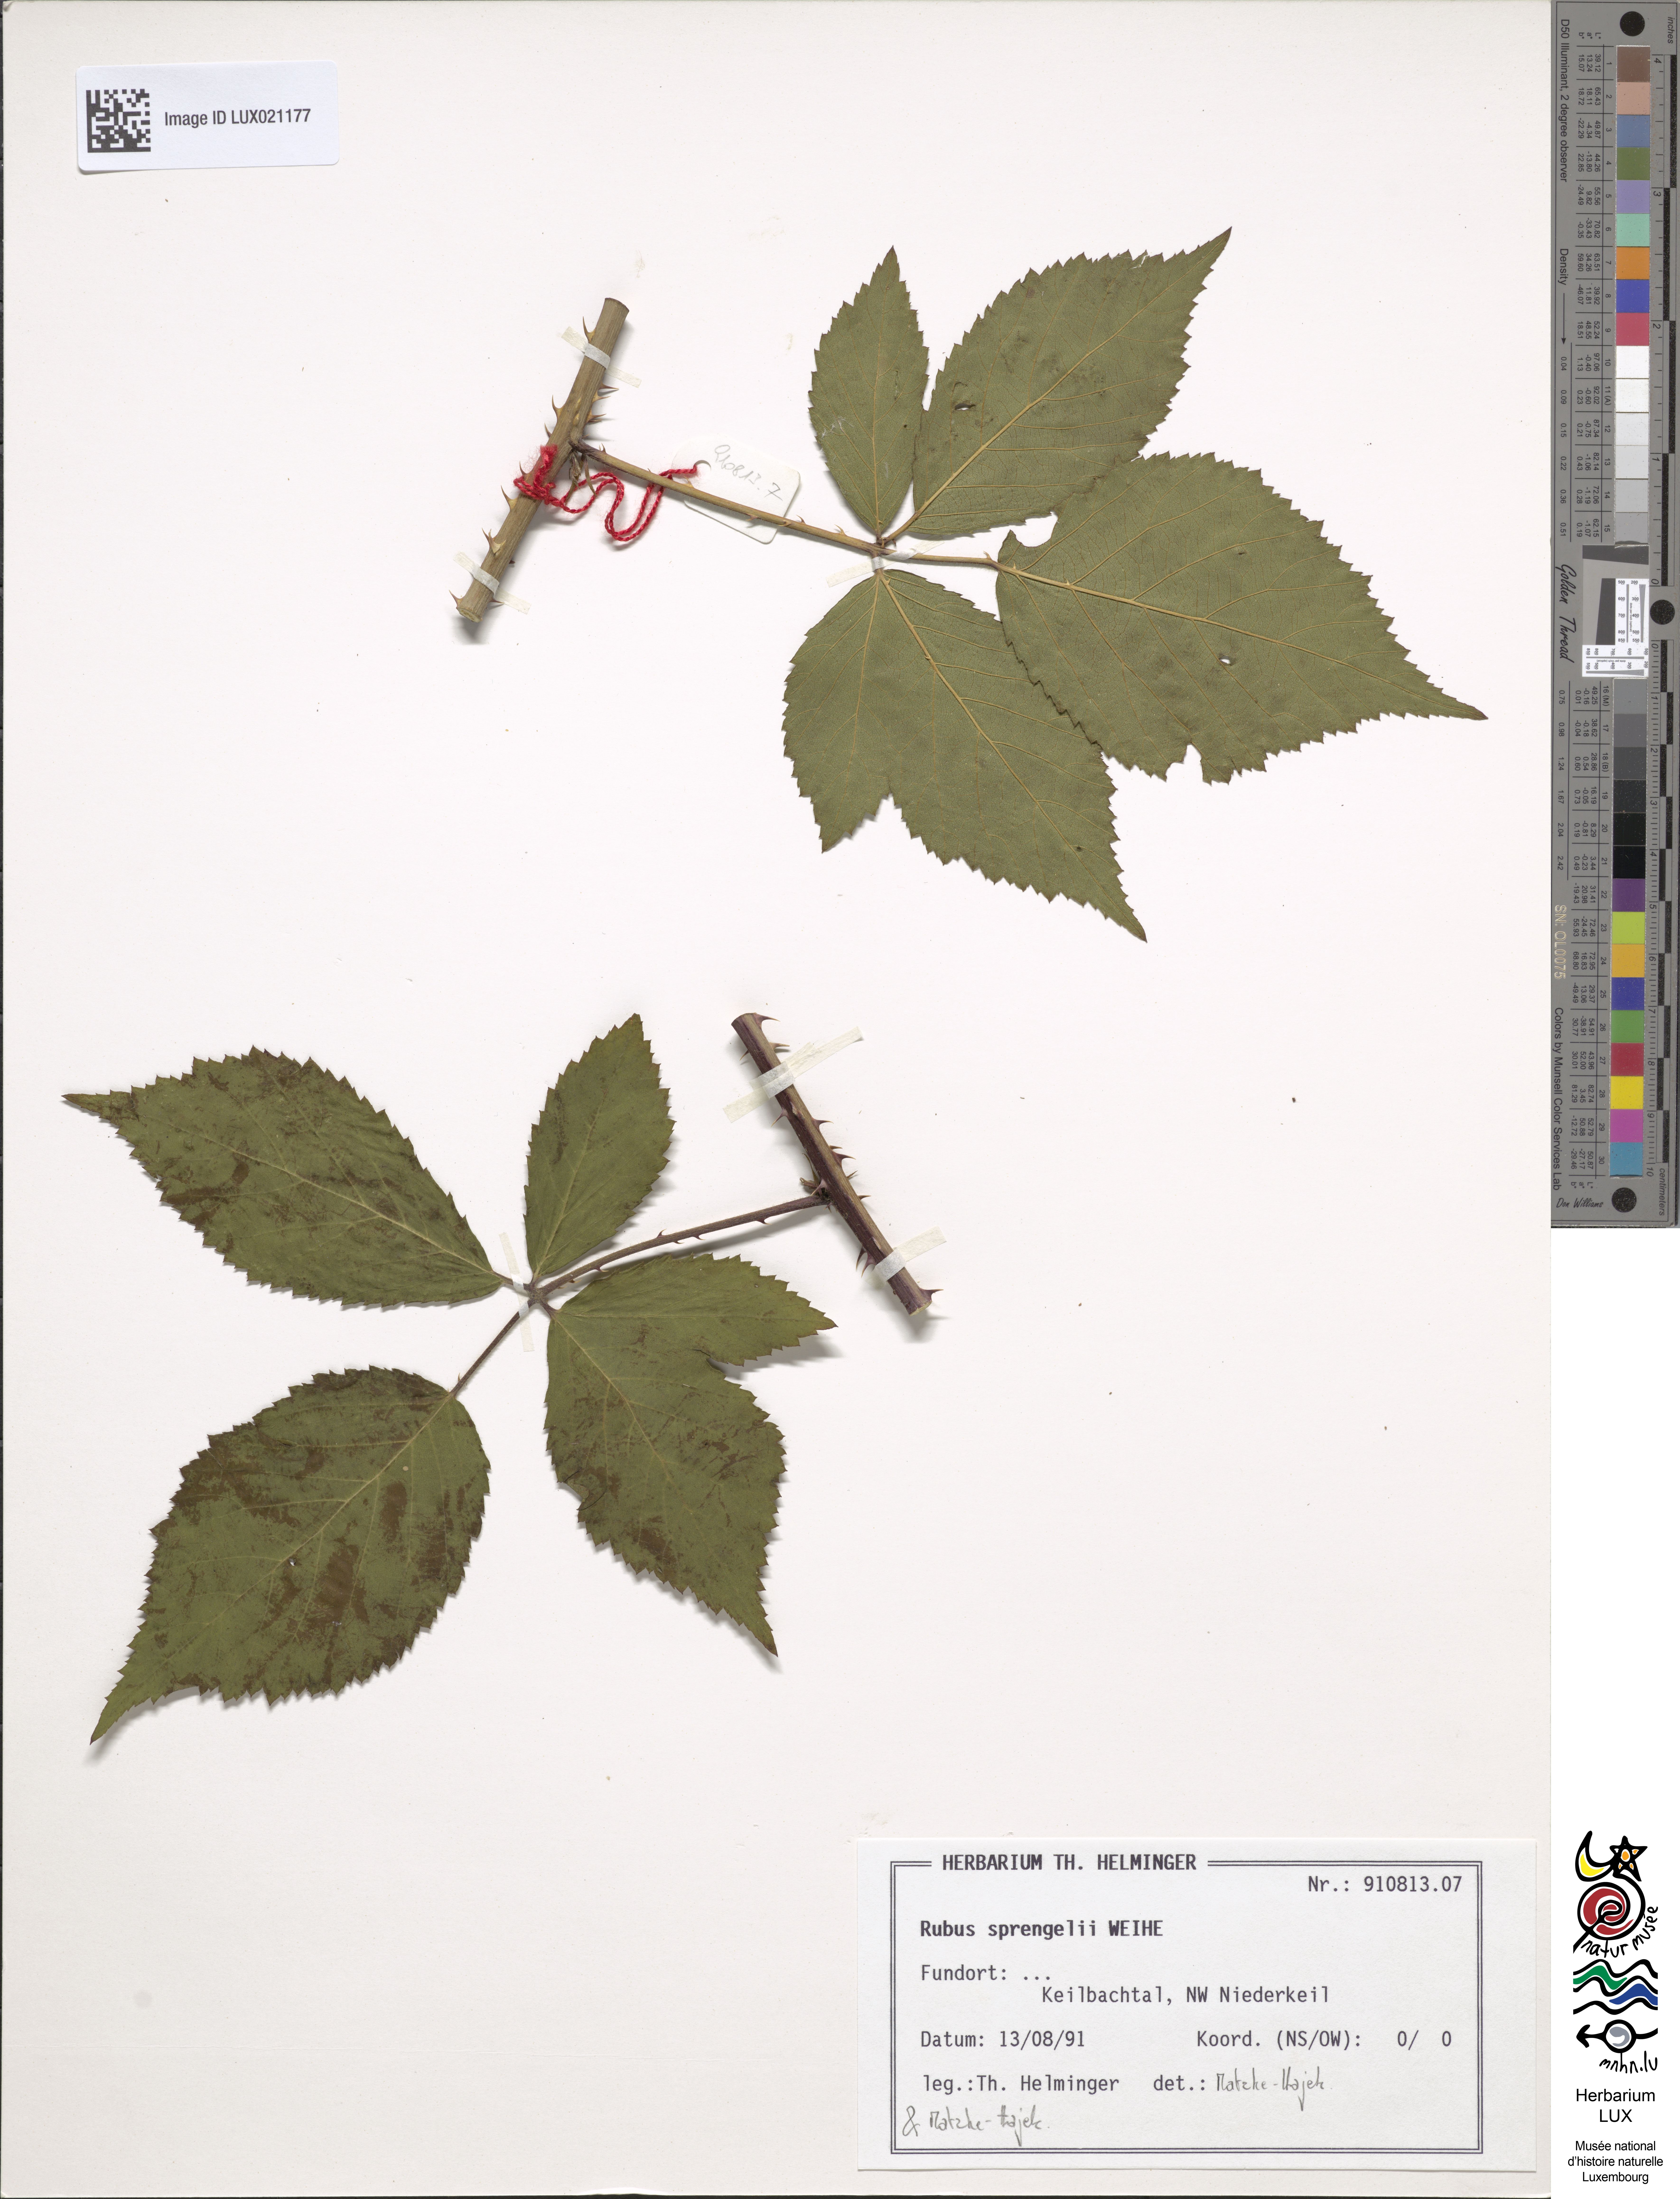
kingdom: Plantae
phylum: Tracheophyta
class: Magnoliopsida
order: Rosales
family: Rosaceae
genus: Rubus
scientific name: Rubus sprengelii
